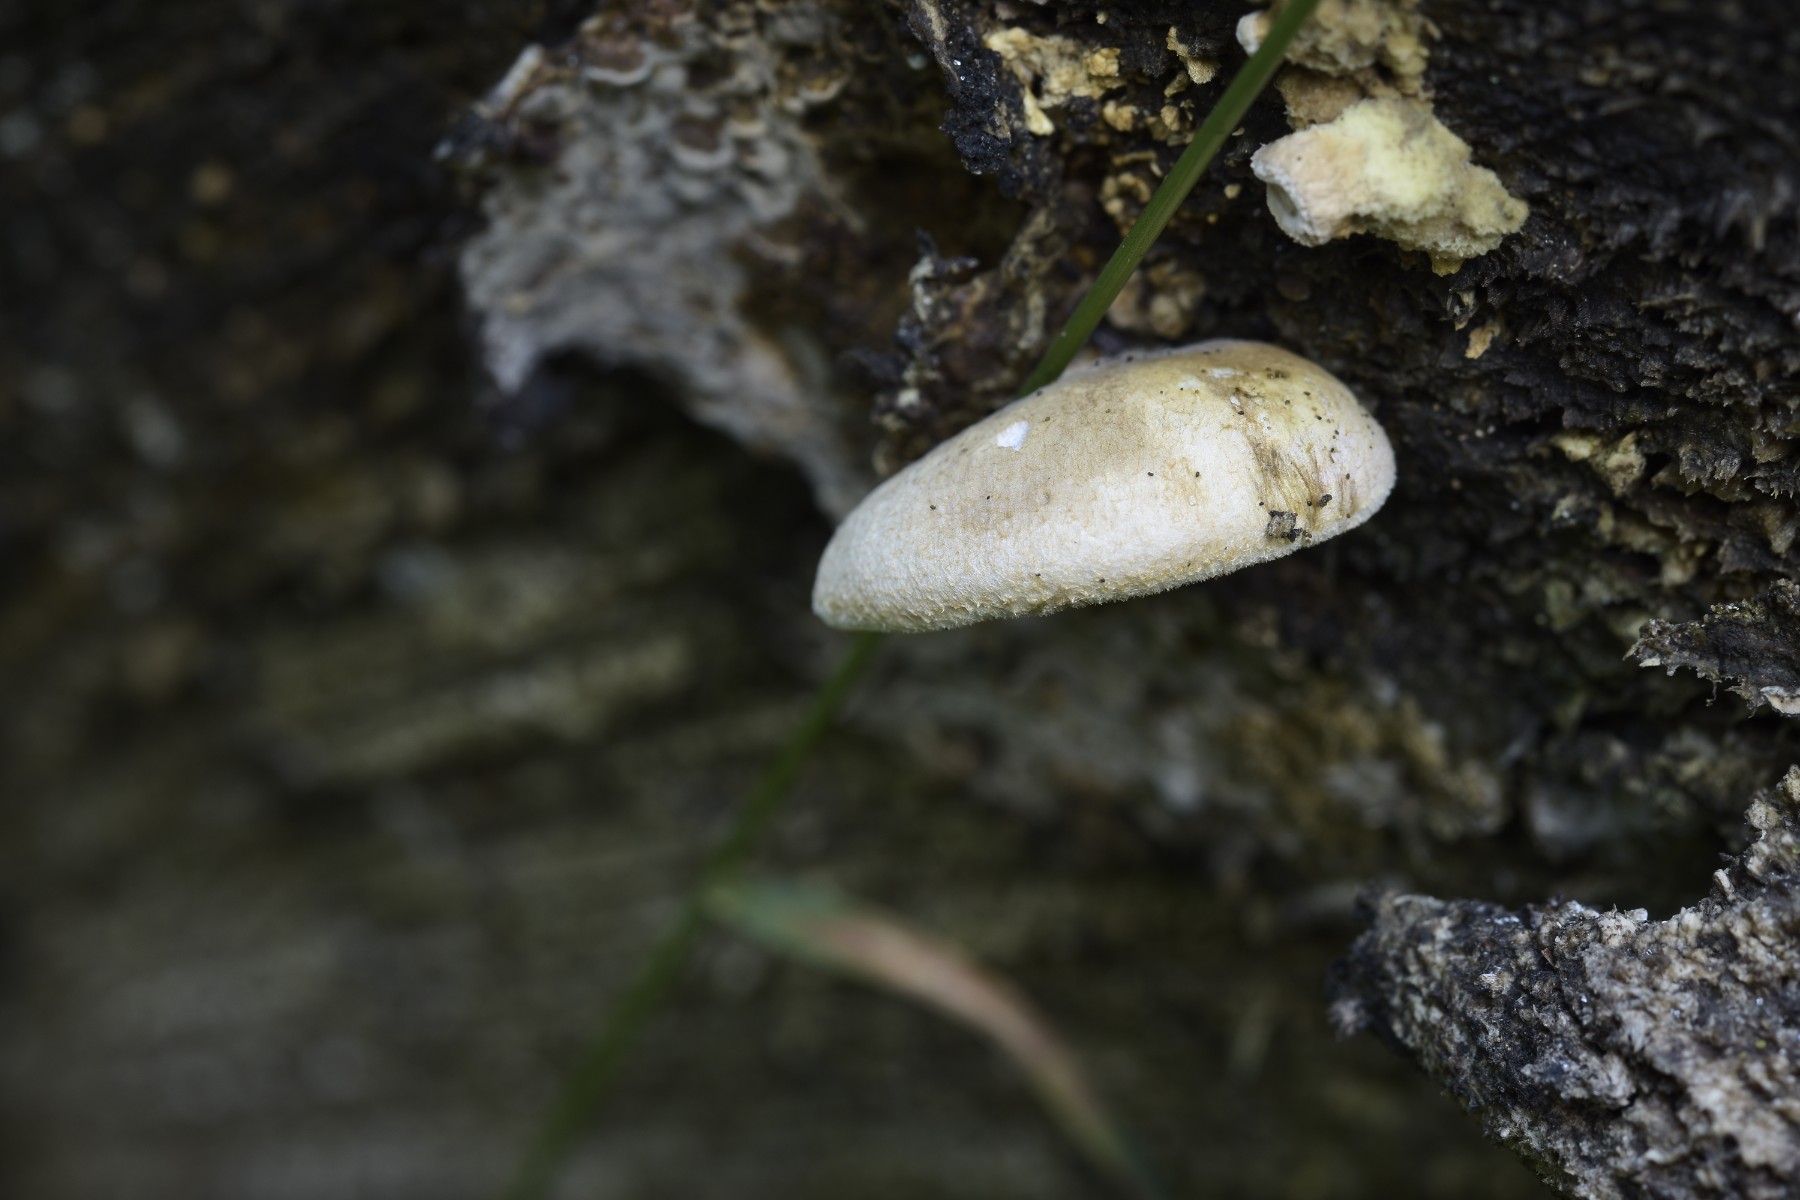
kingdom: Fungi
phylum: Basidiomycota
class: Agaricomycetes
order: Boletales
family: Tapinellaceae
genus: Tapinella
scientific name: Tapinella panuoides
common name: tømmer-viftesvamp
